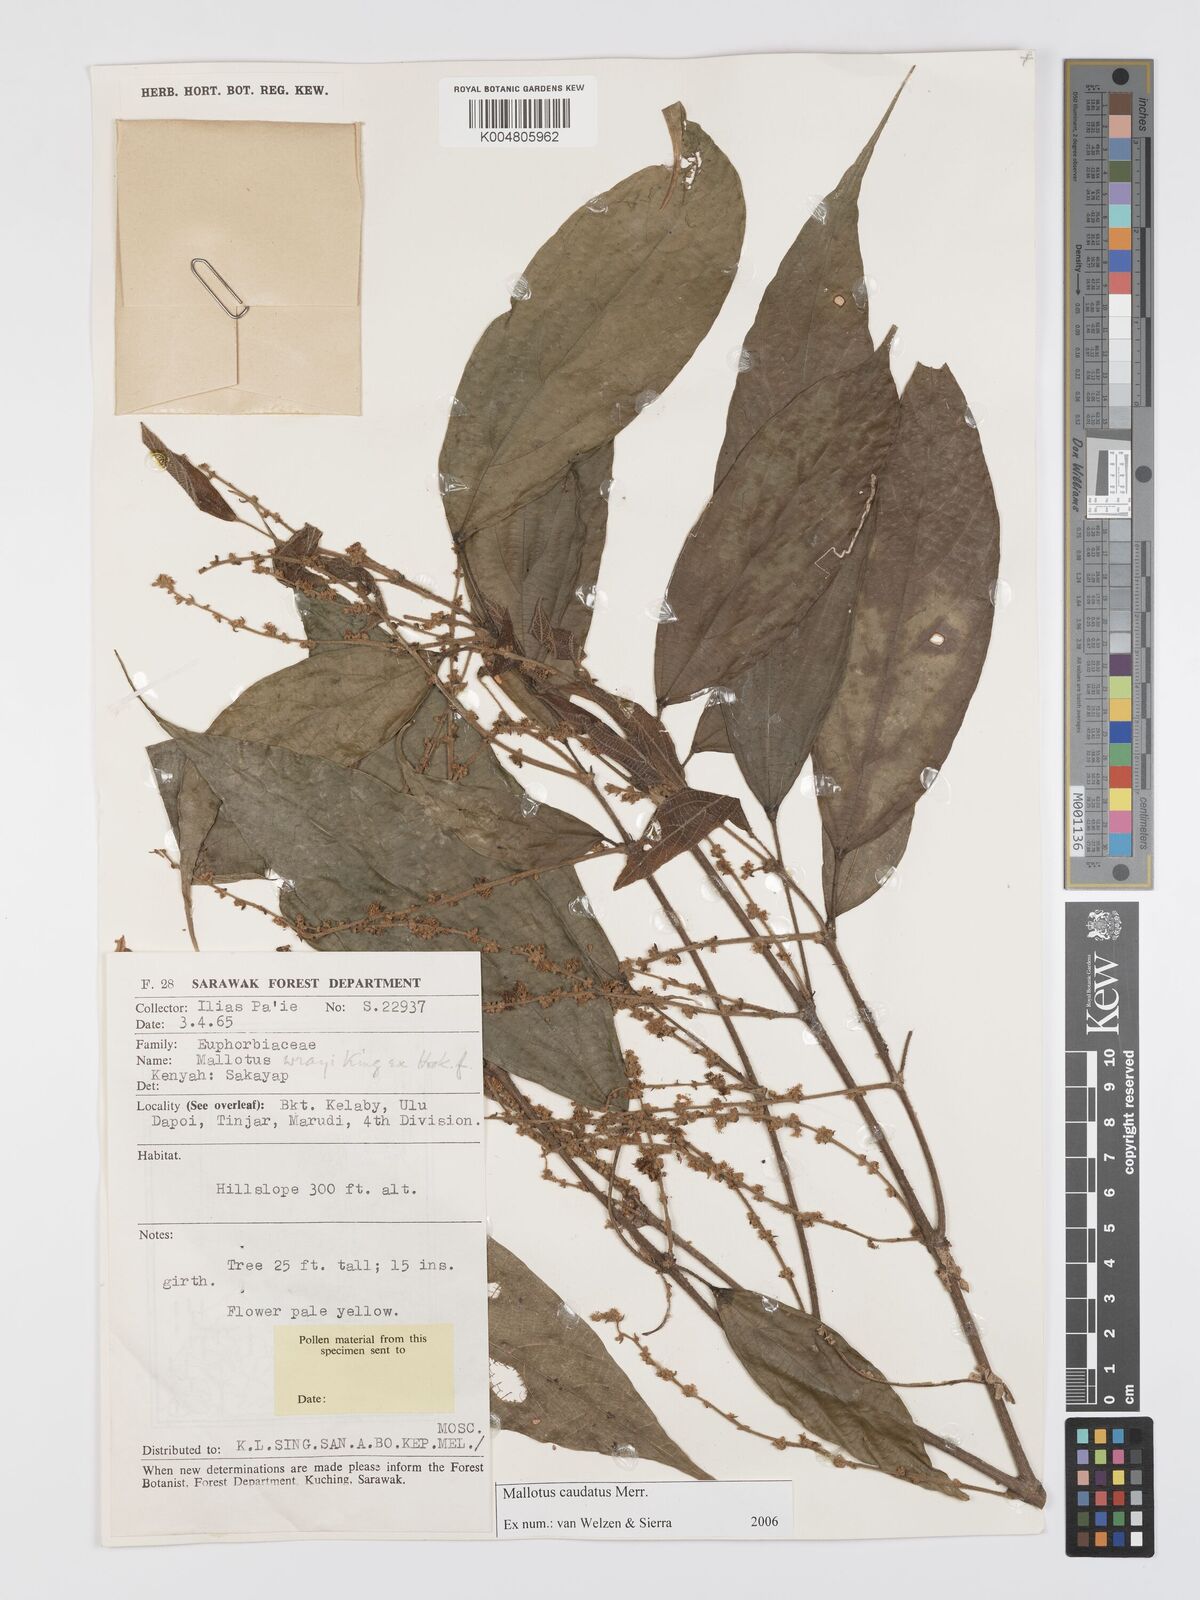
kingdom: Plantae
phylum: Tracheophyta
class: Magnoliopsida
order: Malpighiales
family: Euphorbiaceae
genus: Mallotus
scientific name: Mallotus caudatus
